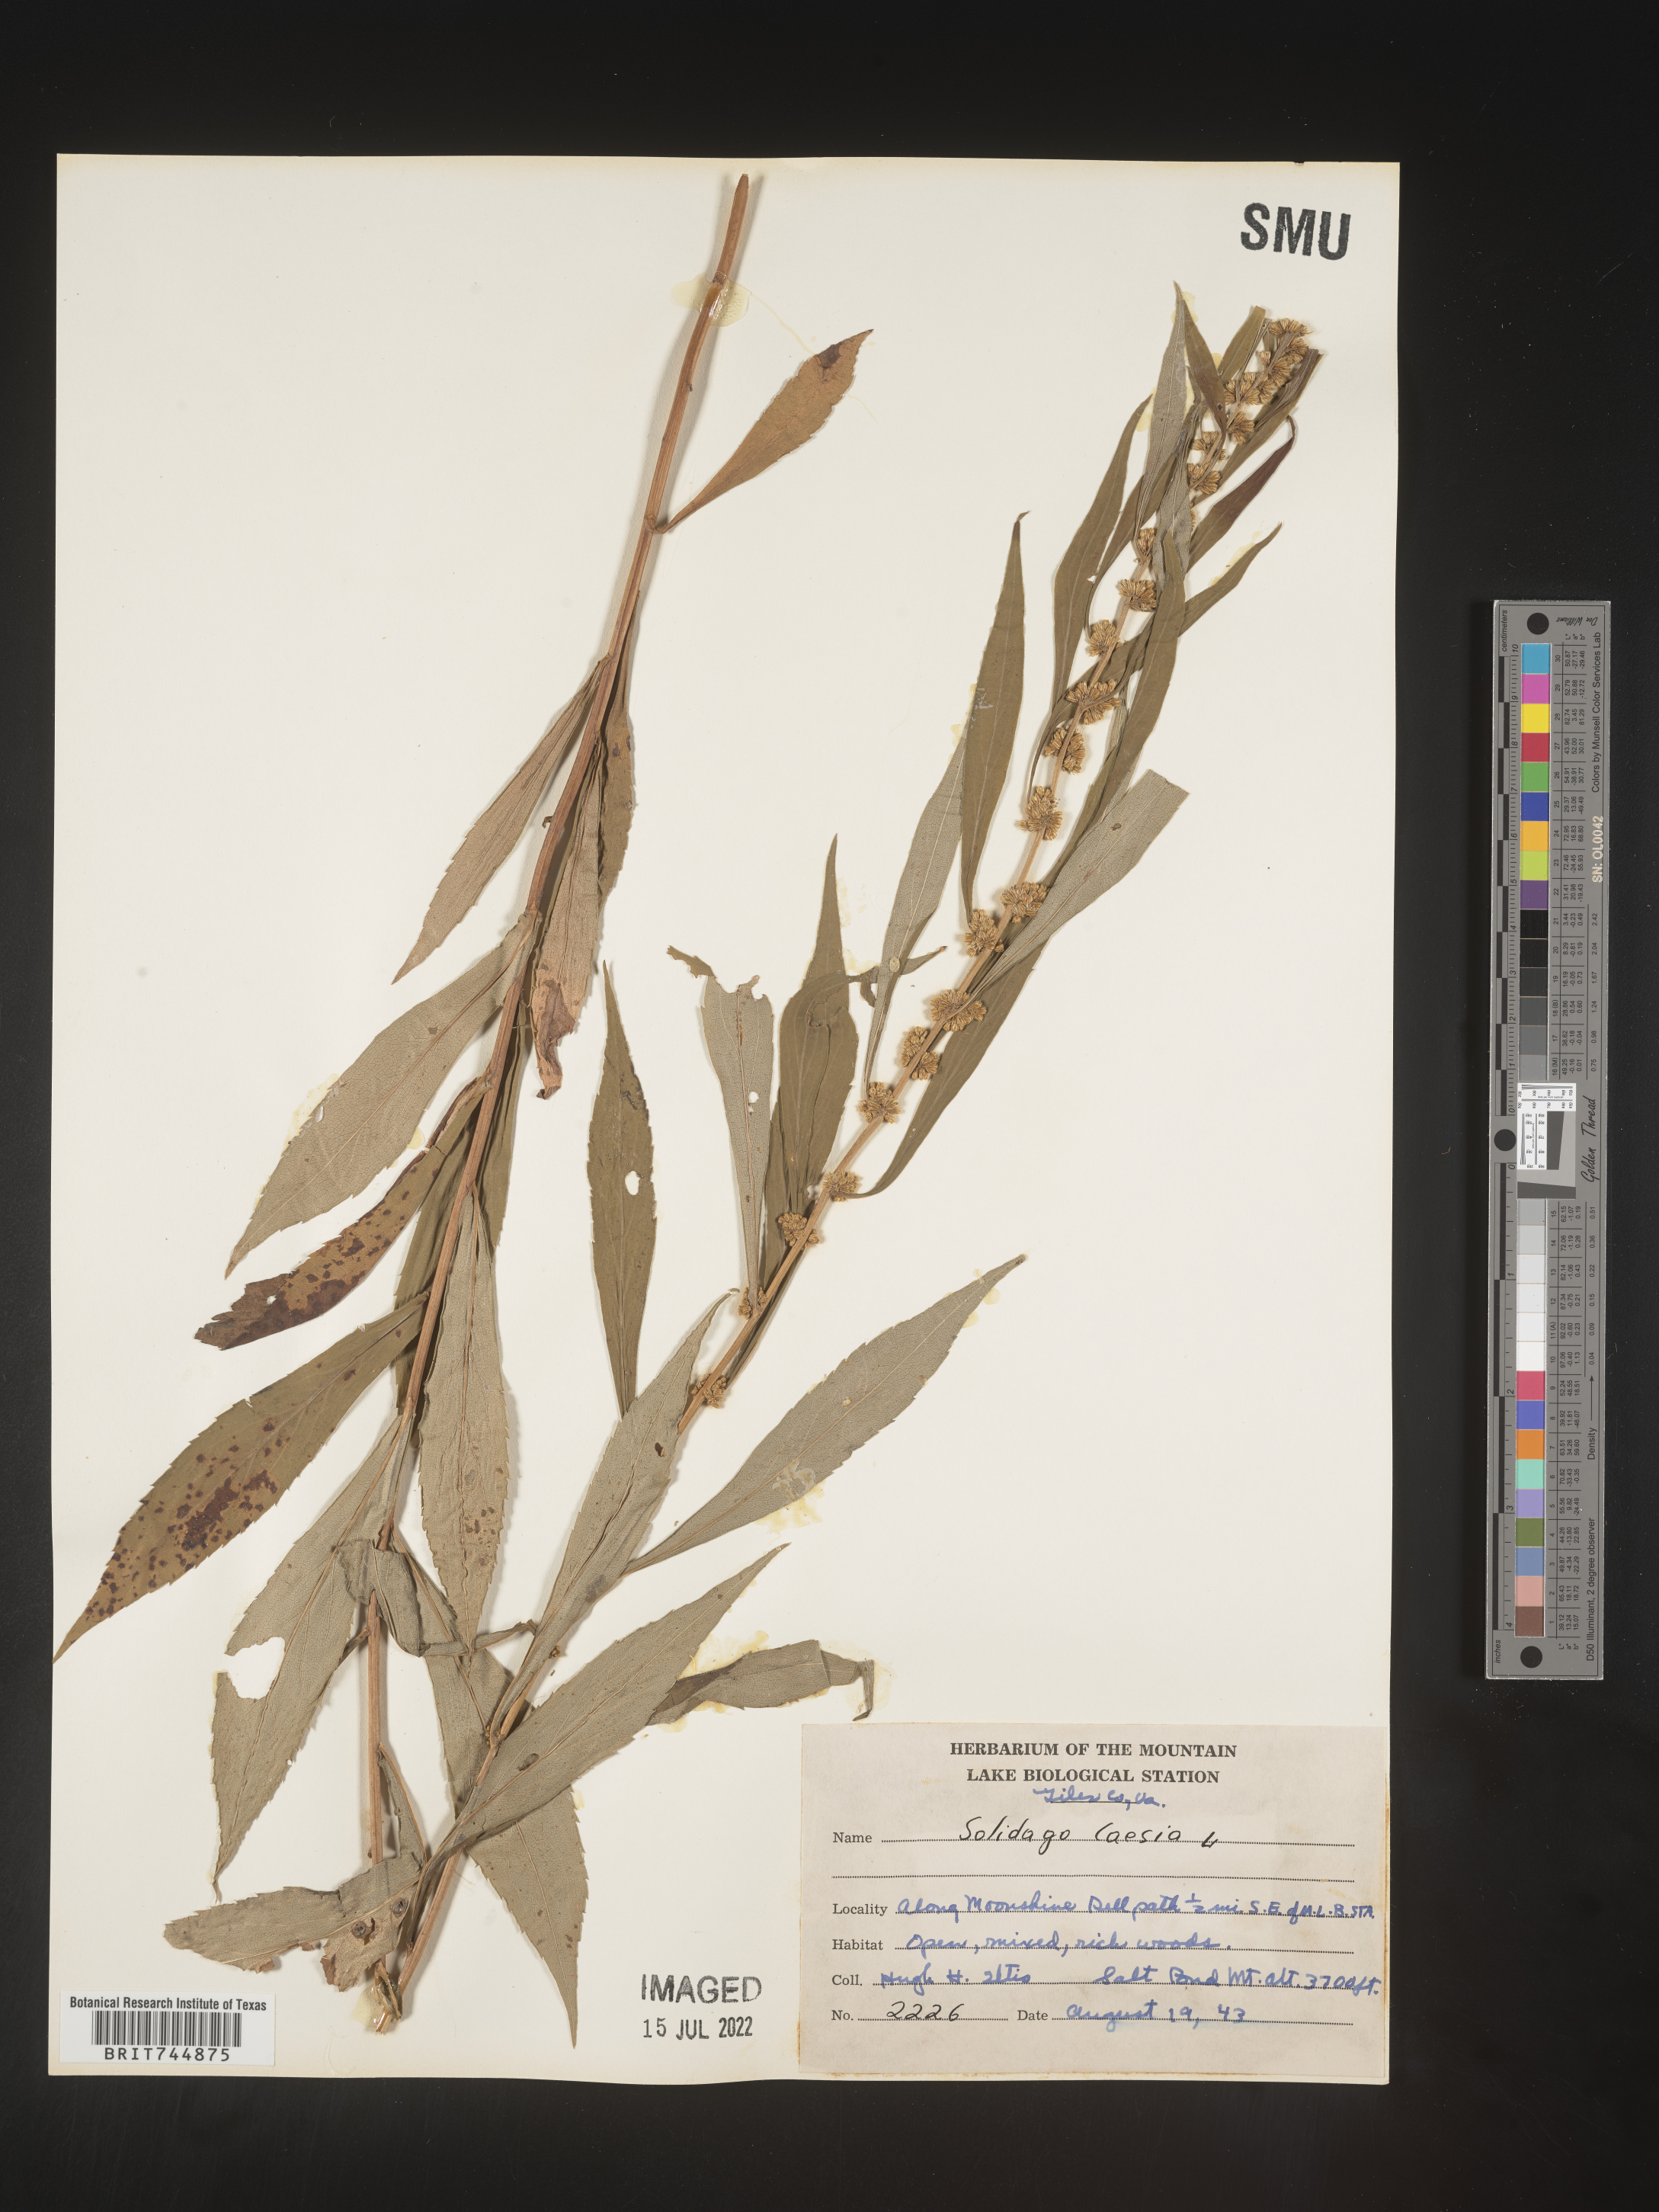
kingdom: Plantae
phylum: Tracheophyta
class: Magnoliopsida
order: Asterales
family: Asteraceae
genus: Solidago
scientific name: Solidago caesia
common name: Woodland goldenrod
